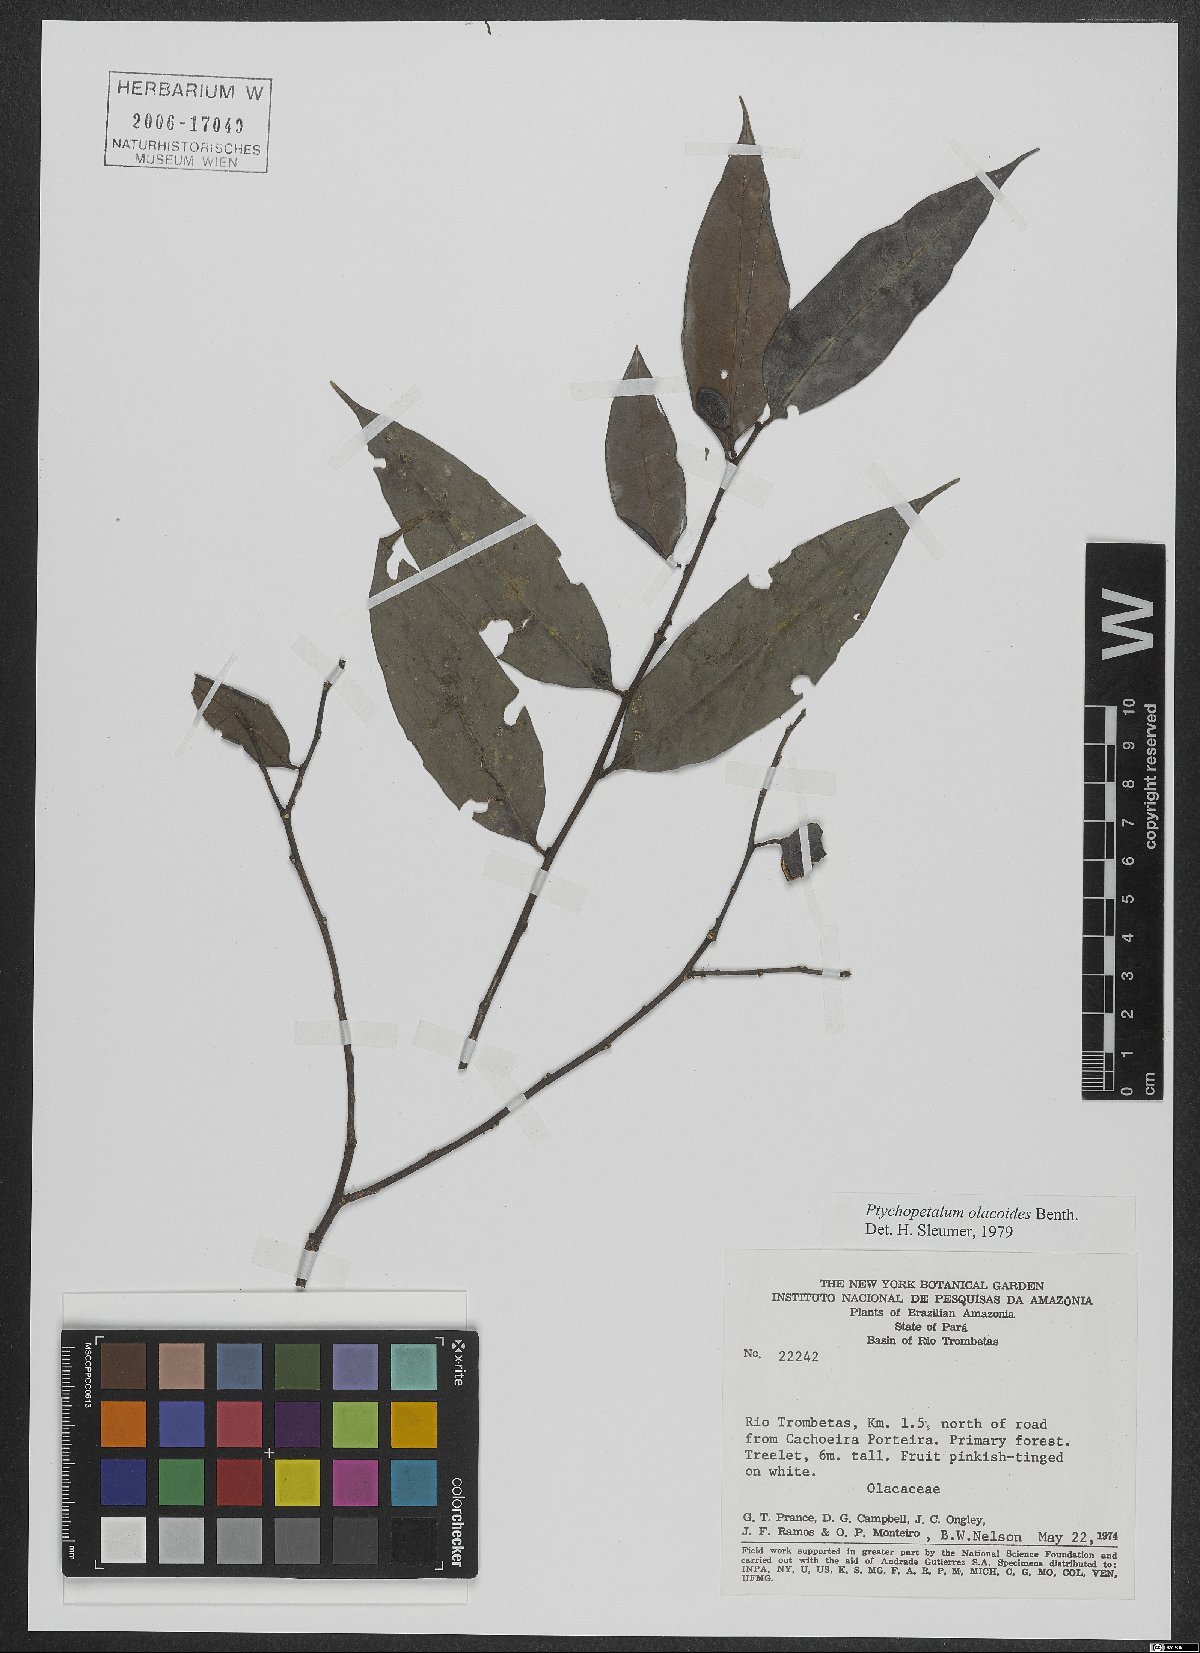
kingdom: Plantae
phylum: Tracheophyta
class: Magnoliopsida
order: Santalales
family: Olacaceae
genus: Ptychopetalum
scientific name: Ptychopetalum olacoides
